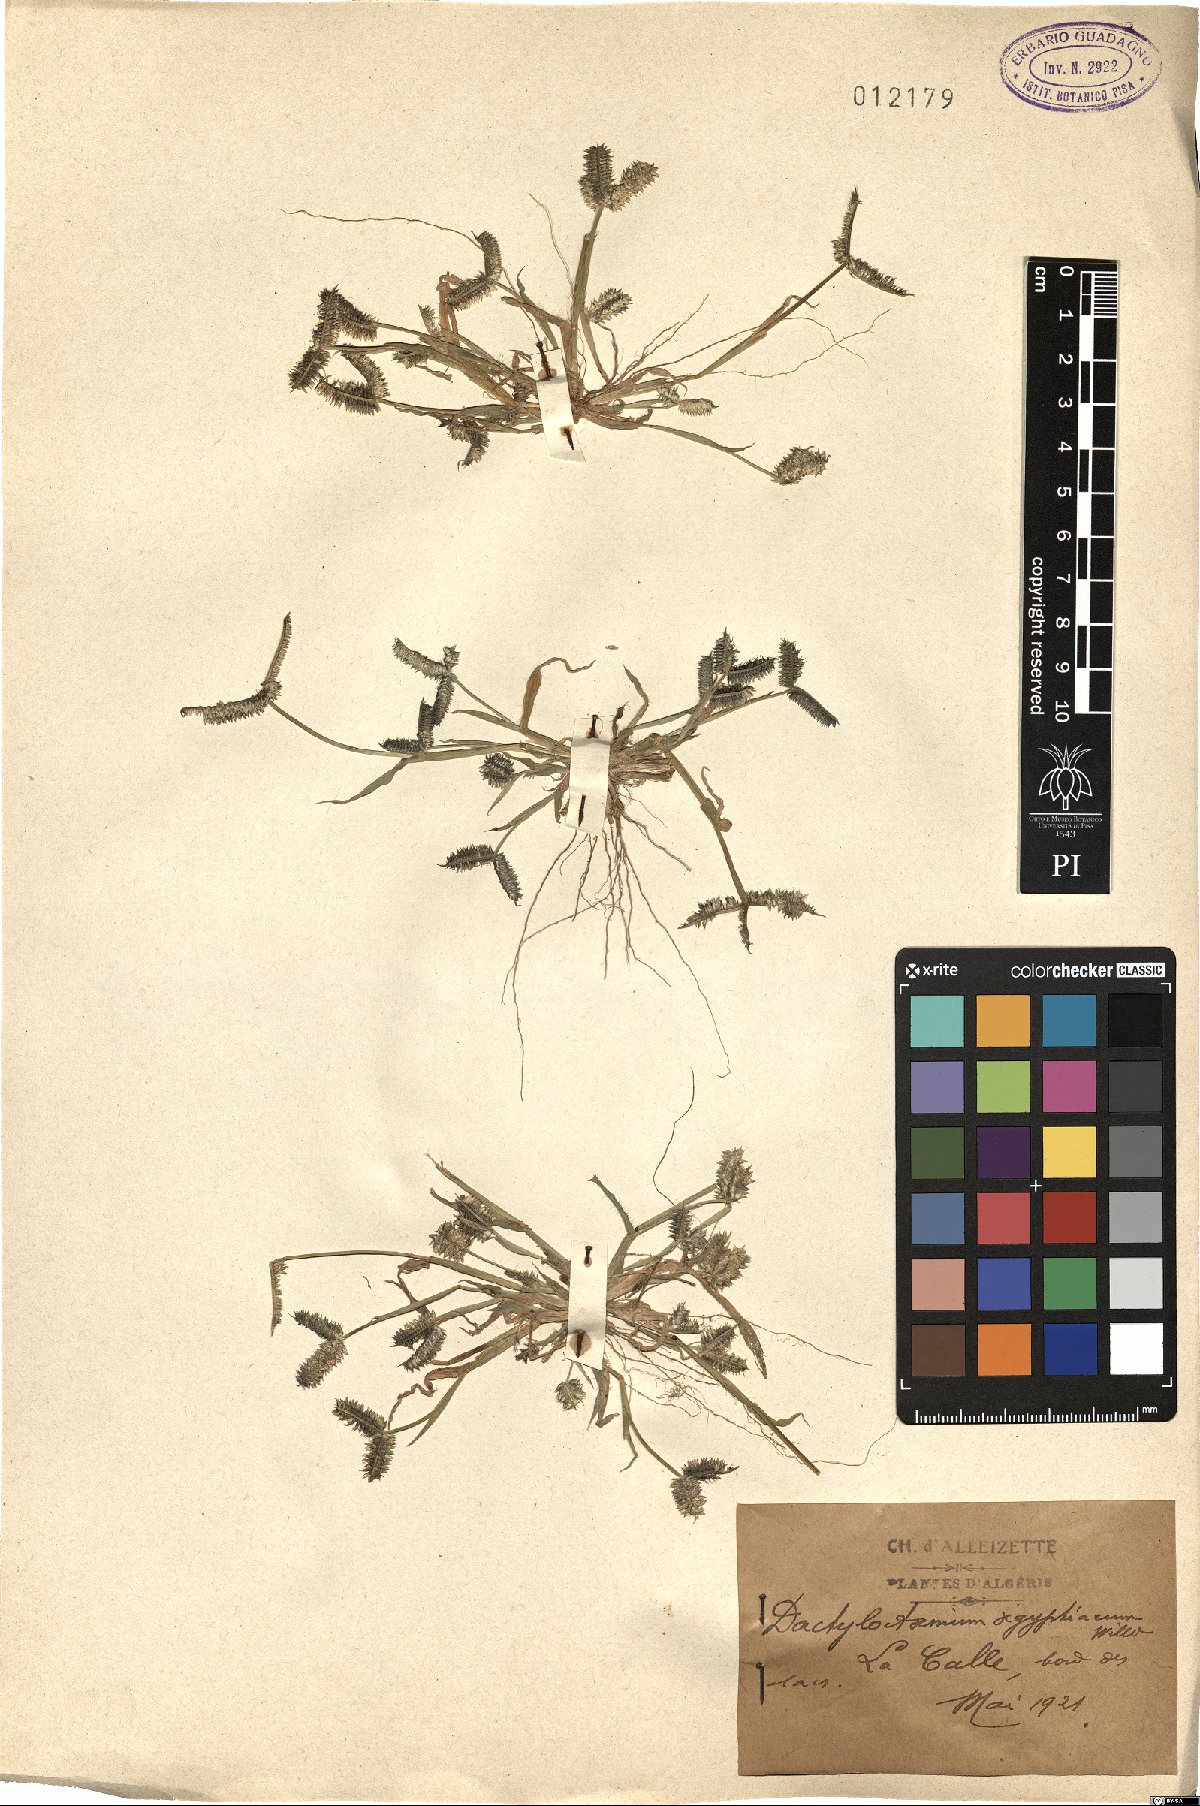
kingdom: Plantae
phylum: Tracheophyta
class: Liliopsida
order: Poales
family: Poaceae
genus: Dactyloctenium
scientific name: Dactyloctenium aegyptium
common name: Egyptian grass
